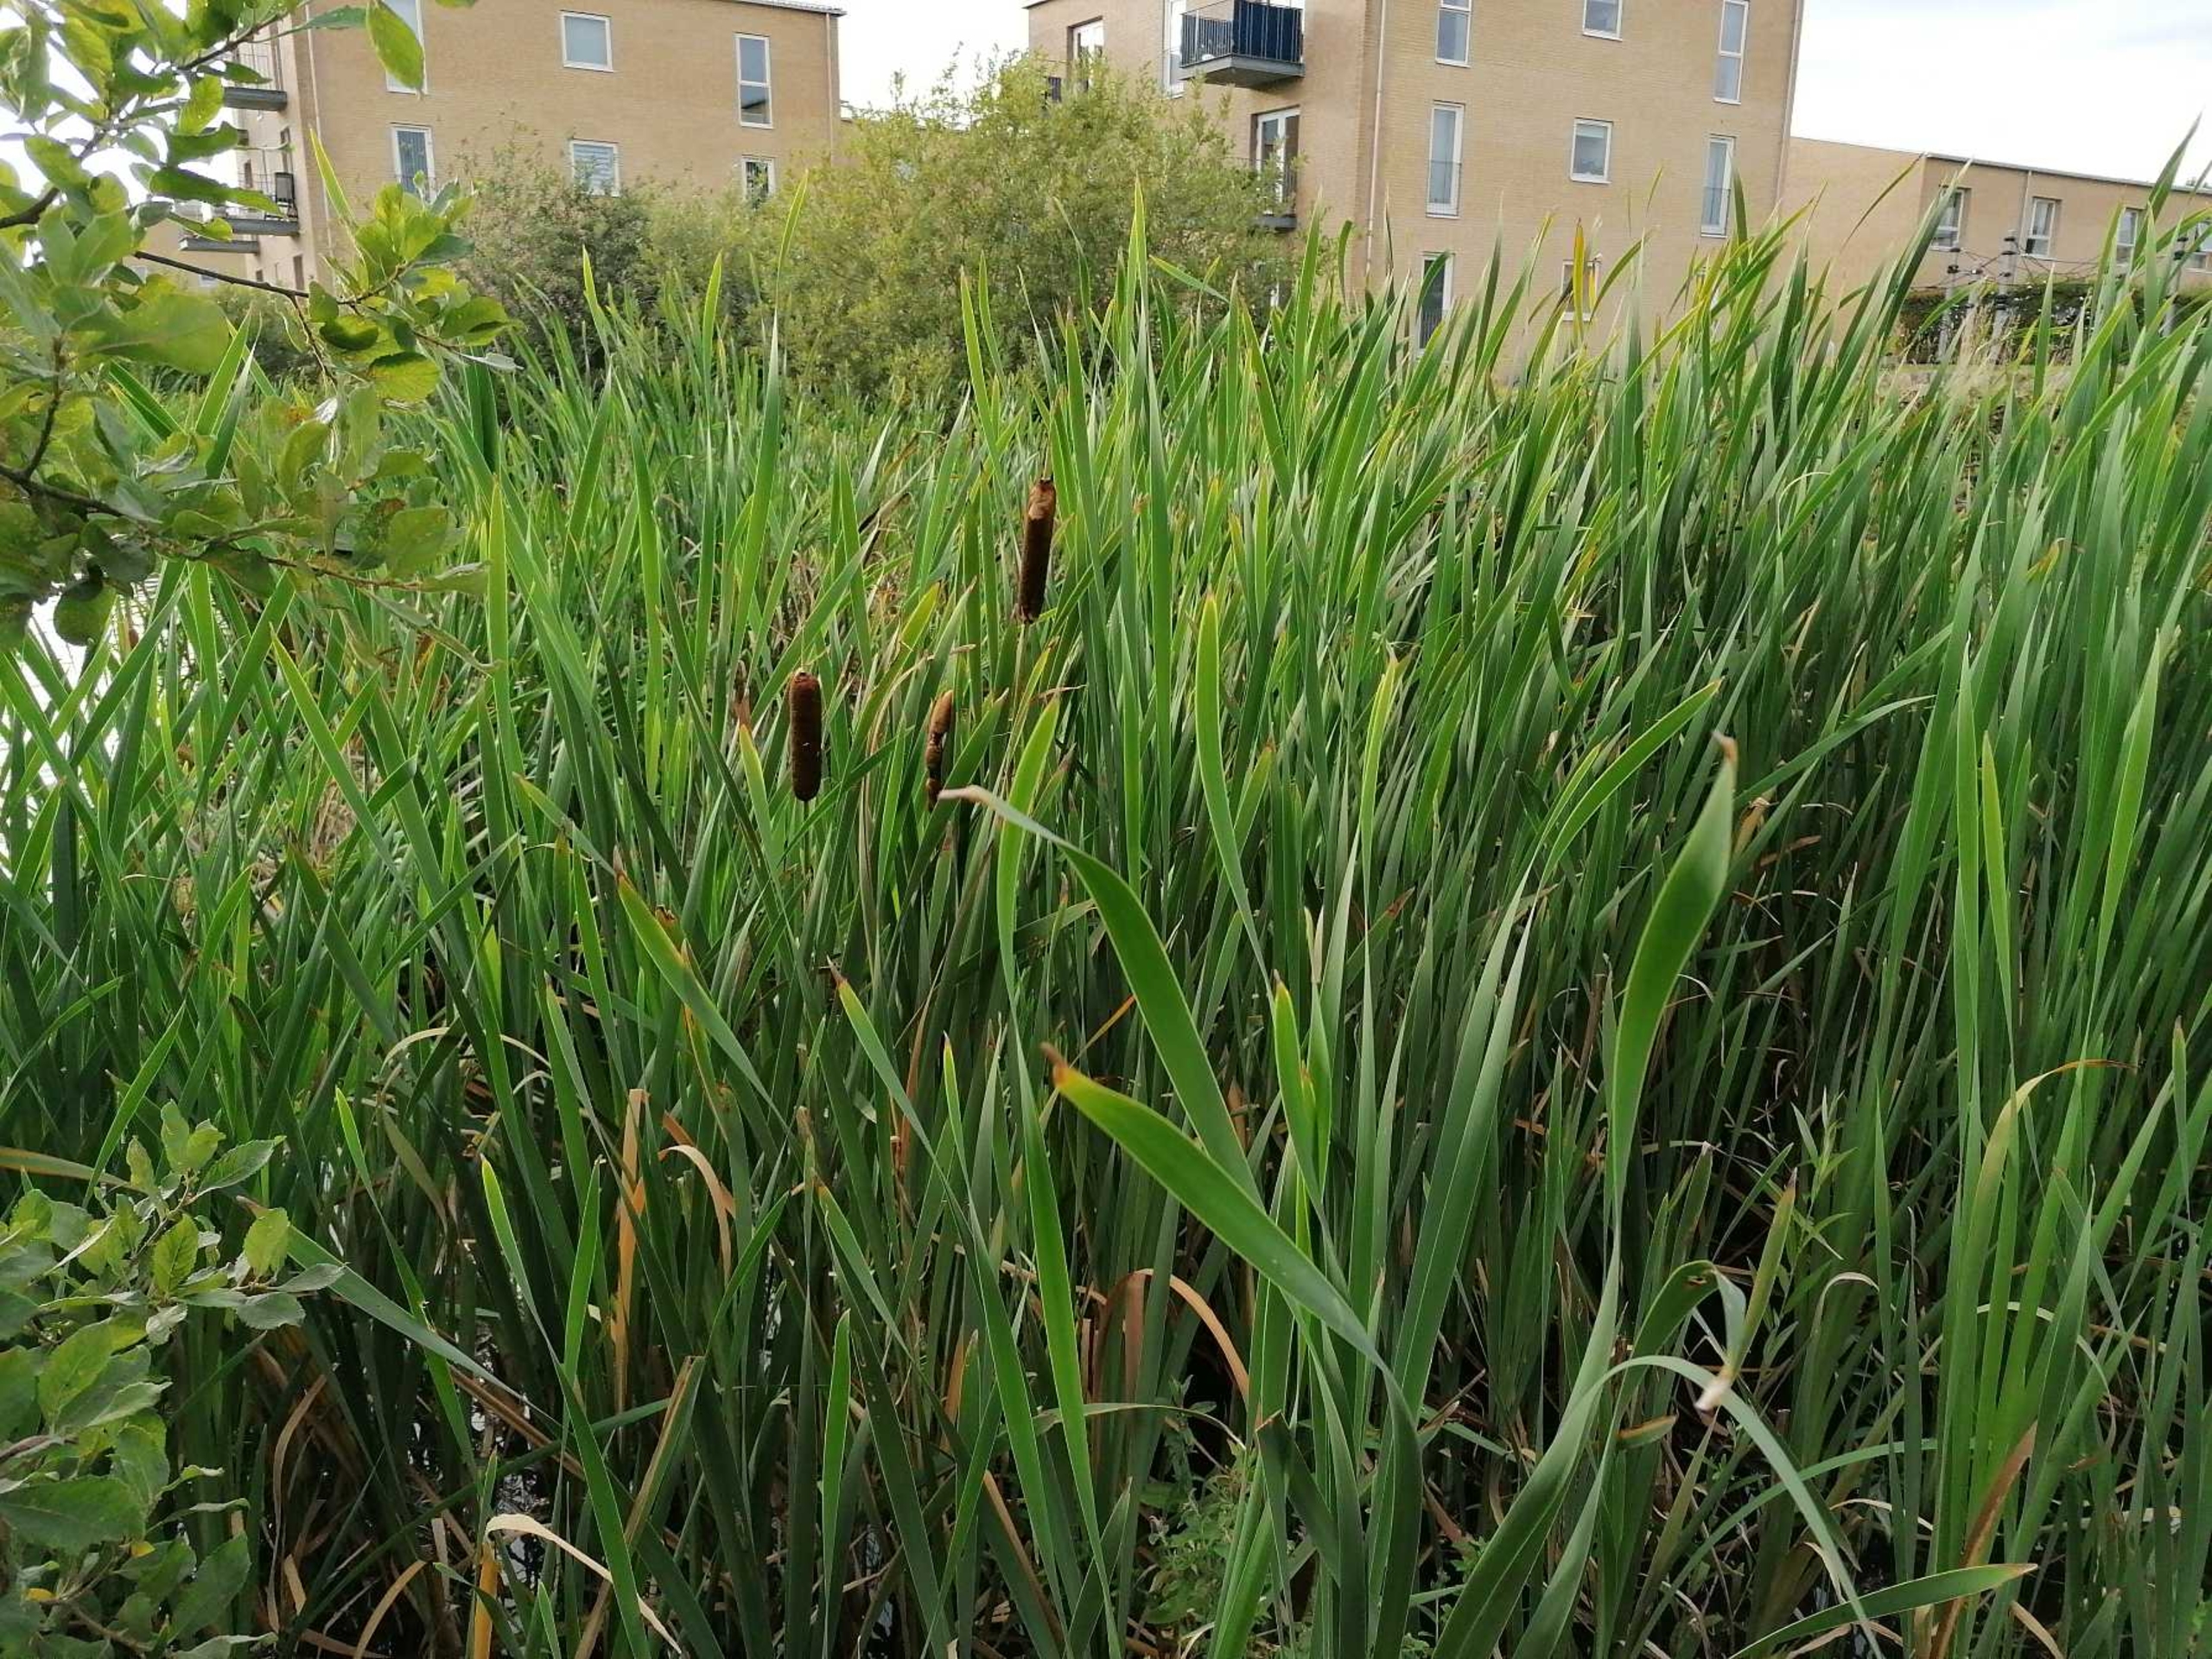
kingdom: Plantae
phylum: Tracheophyta
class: Liliopsida
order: Poales
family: Typhaceae
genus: Typha
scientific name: Typha latifolia
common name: Bredbladet dunhammer
